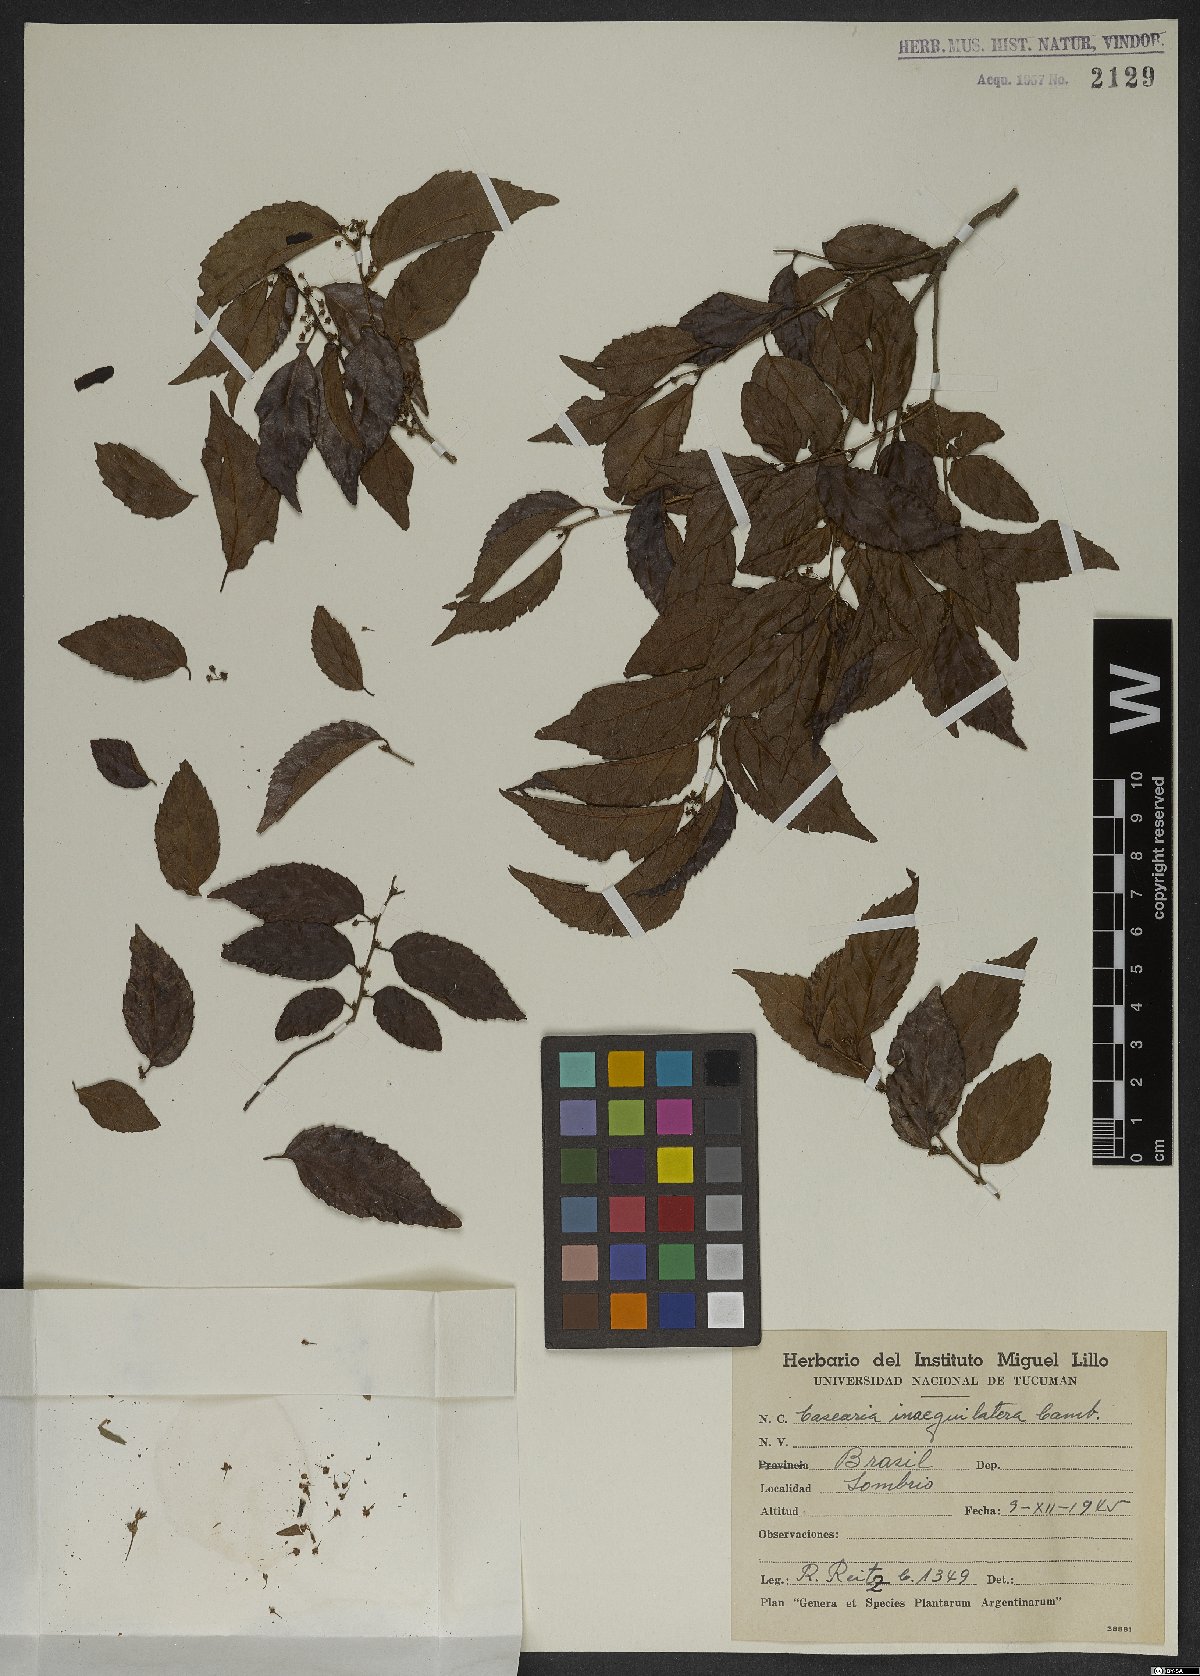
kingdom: Plantae
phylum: Tracheophyta
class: Magnoliopsida
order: Malpighiales
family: Salicaceae
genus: Casearia
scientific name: Casearia obliqua
